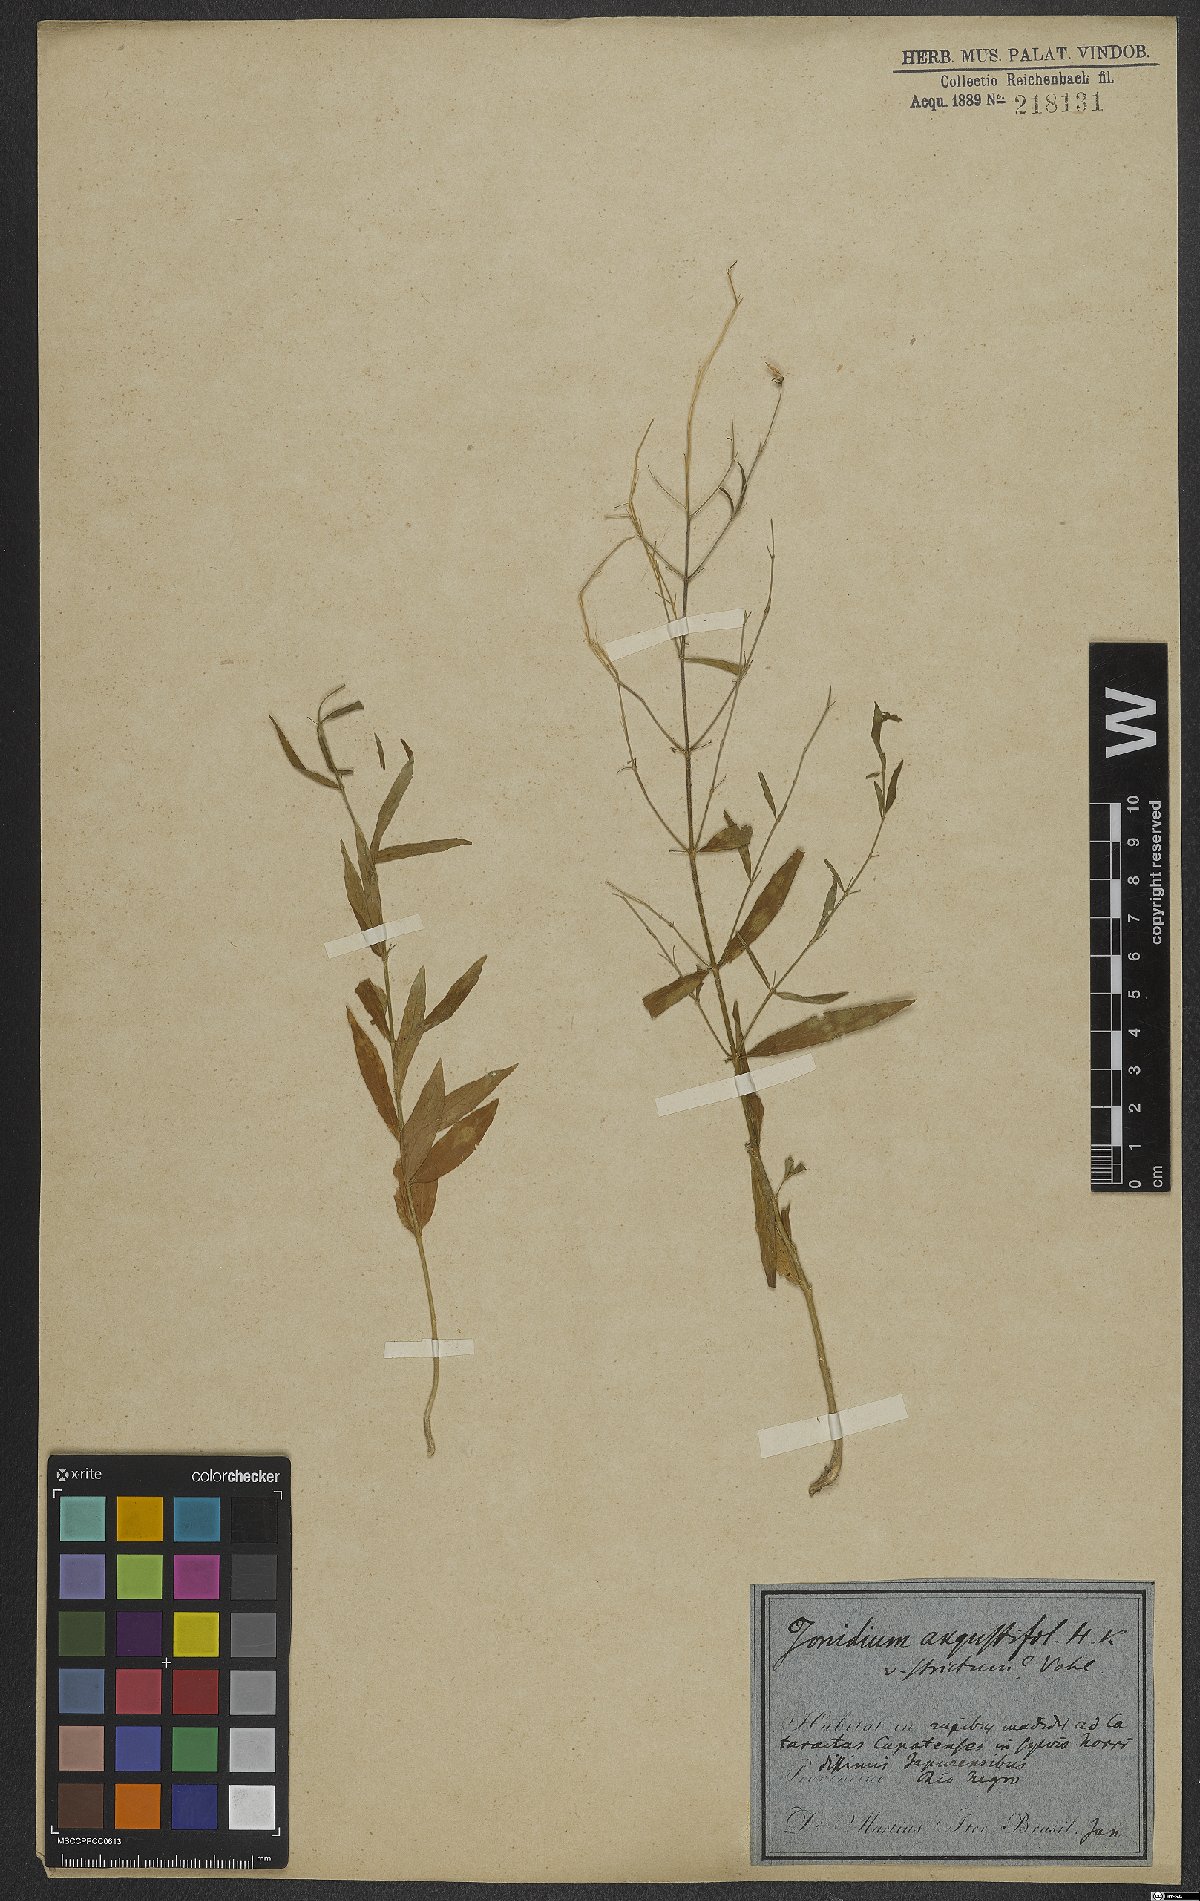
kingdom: Plantae
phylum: Tracheophyta
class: Magnoliopsida
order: Malpighiales
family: Violaceae
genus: Pombalia
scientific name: Pombalia oppositifolia
